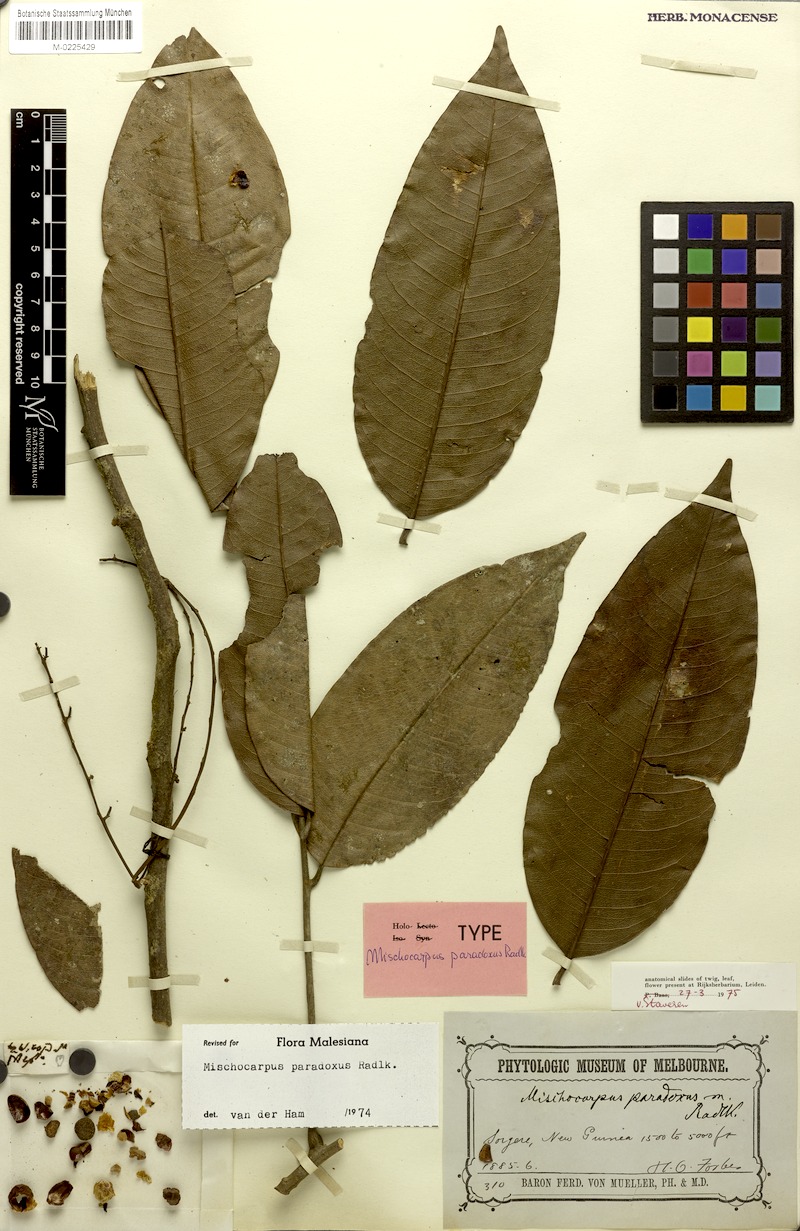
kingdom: Plantae
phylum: Tracheophyta
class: Magnoliopsida
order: Sapindales
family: Sapindaceae
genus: Mischocarpus
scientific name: Mischocarpus paradoxus
